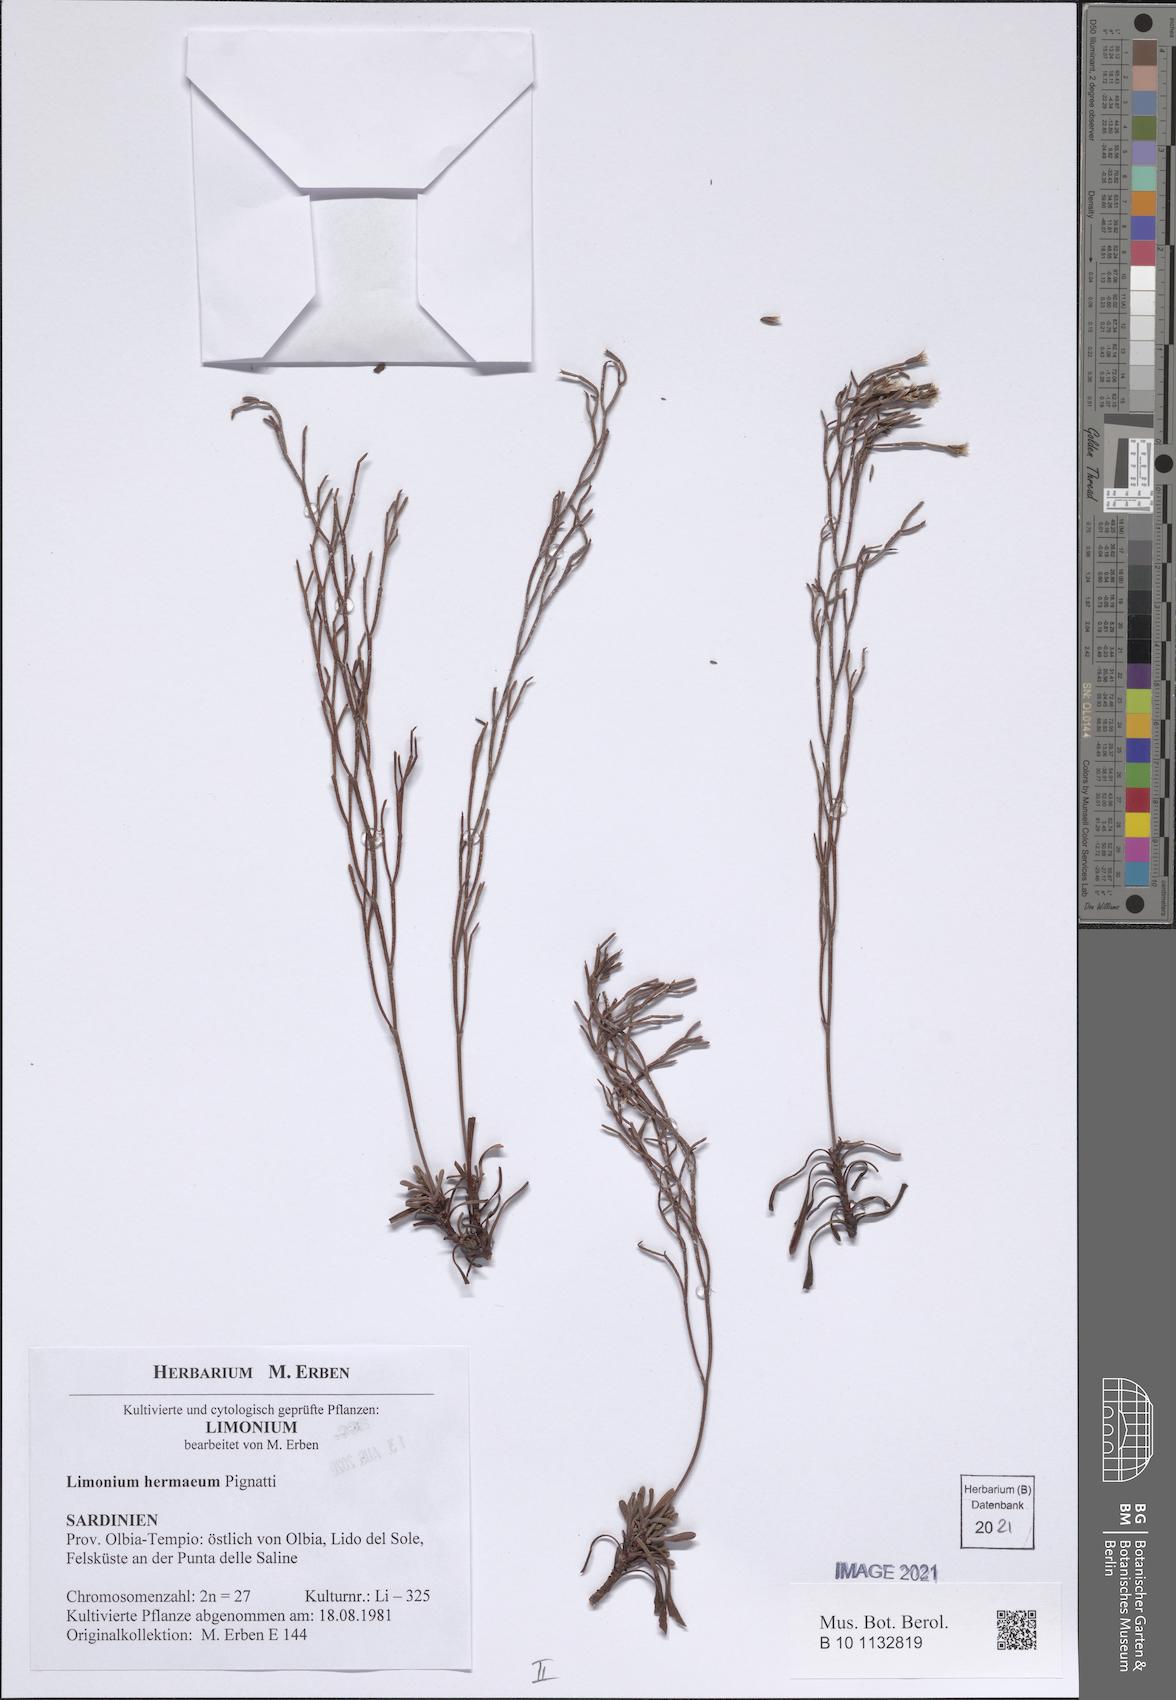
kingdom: Plantae
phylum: Tracheophyta
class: Magnoliopsida
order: Caryophyllales
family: Plumbaginaceae
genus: Limonium
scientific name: Limonium hermaeum
